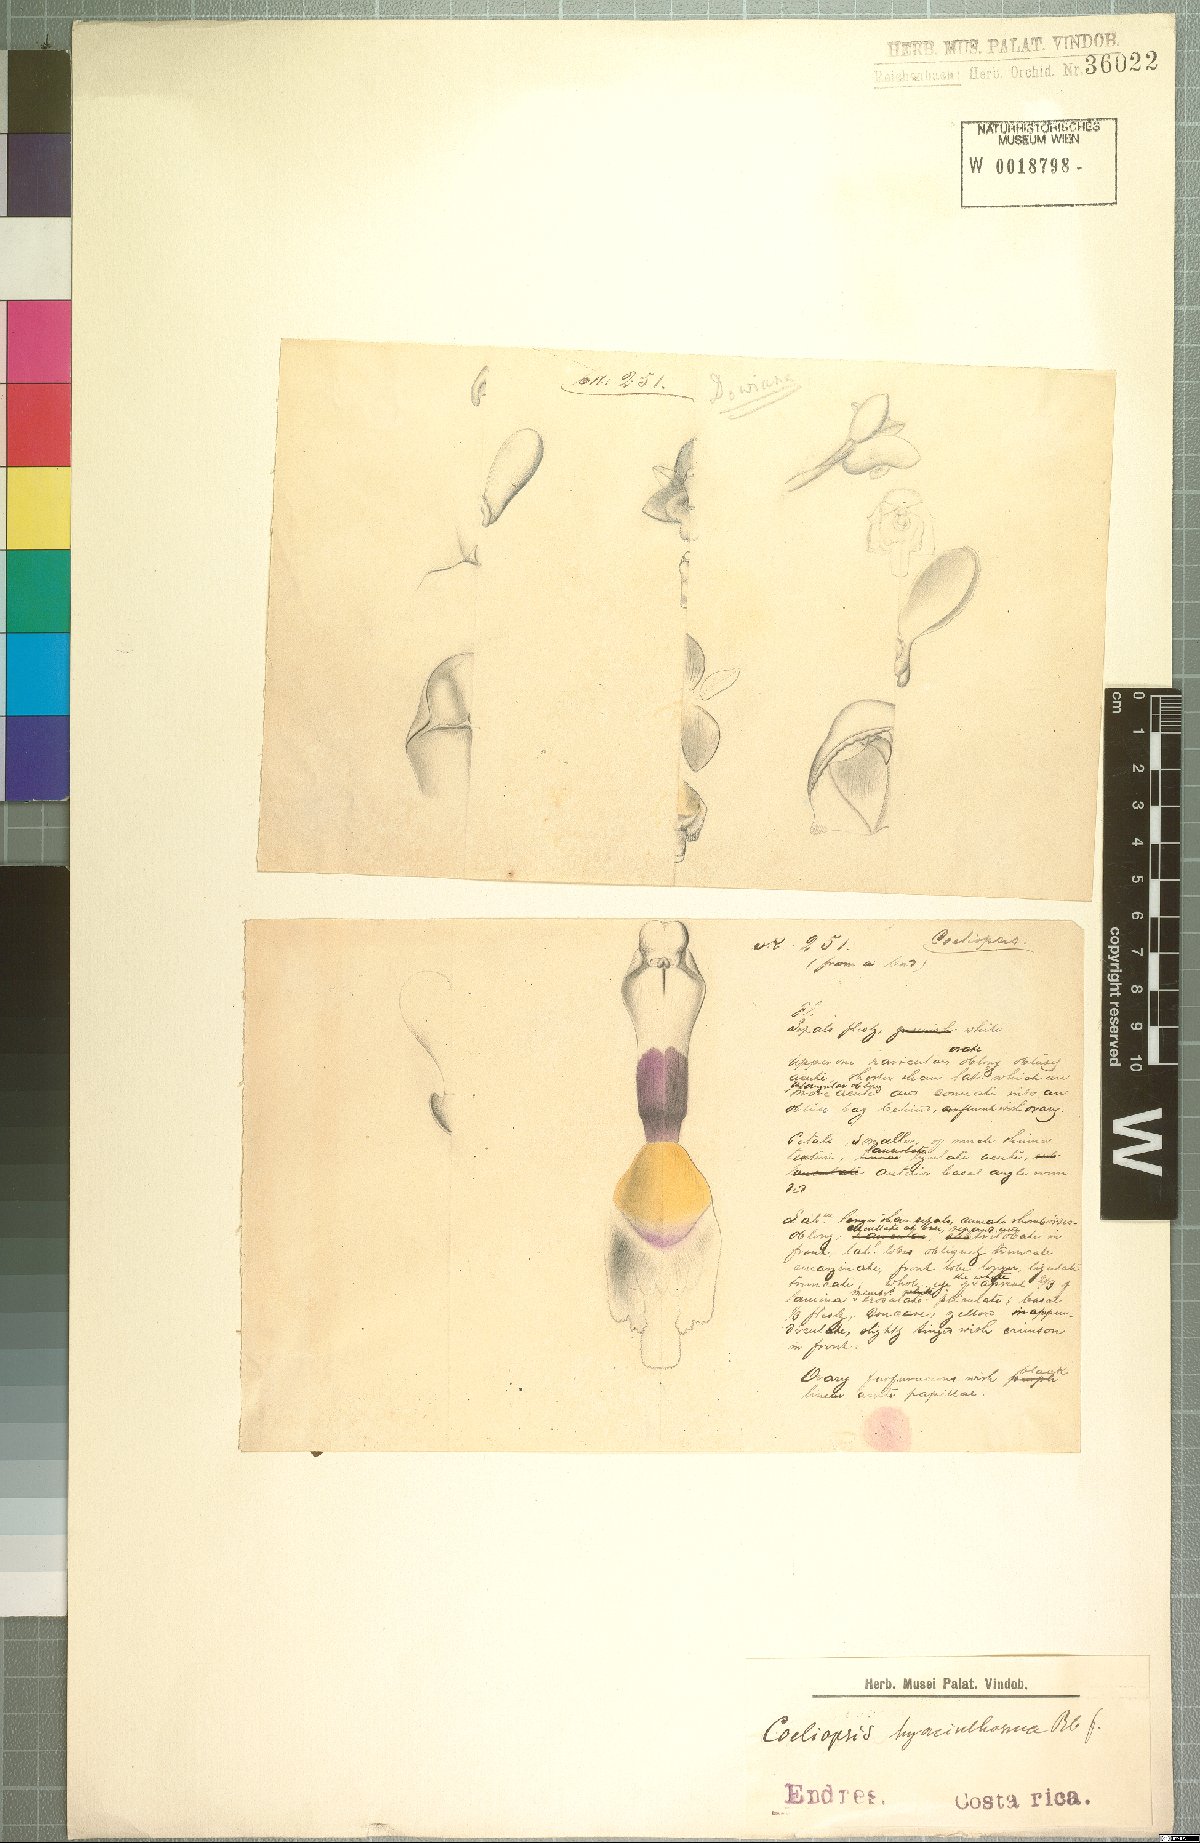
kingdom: Plantae
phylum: Tracheophyta
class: Liliopsida
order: Asparagales
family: Orchidaceae
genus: Coeliopsis
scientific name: Coeliopsis hyacinthosma
